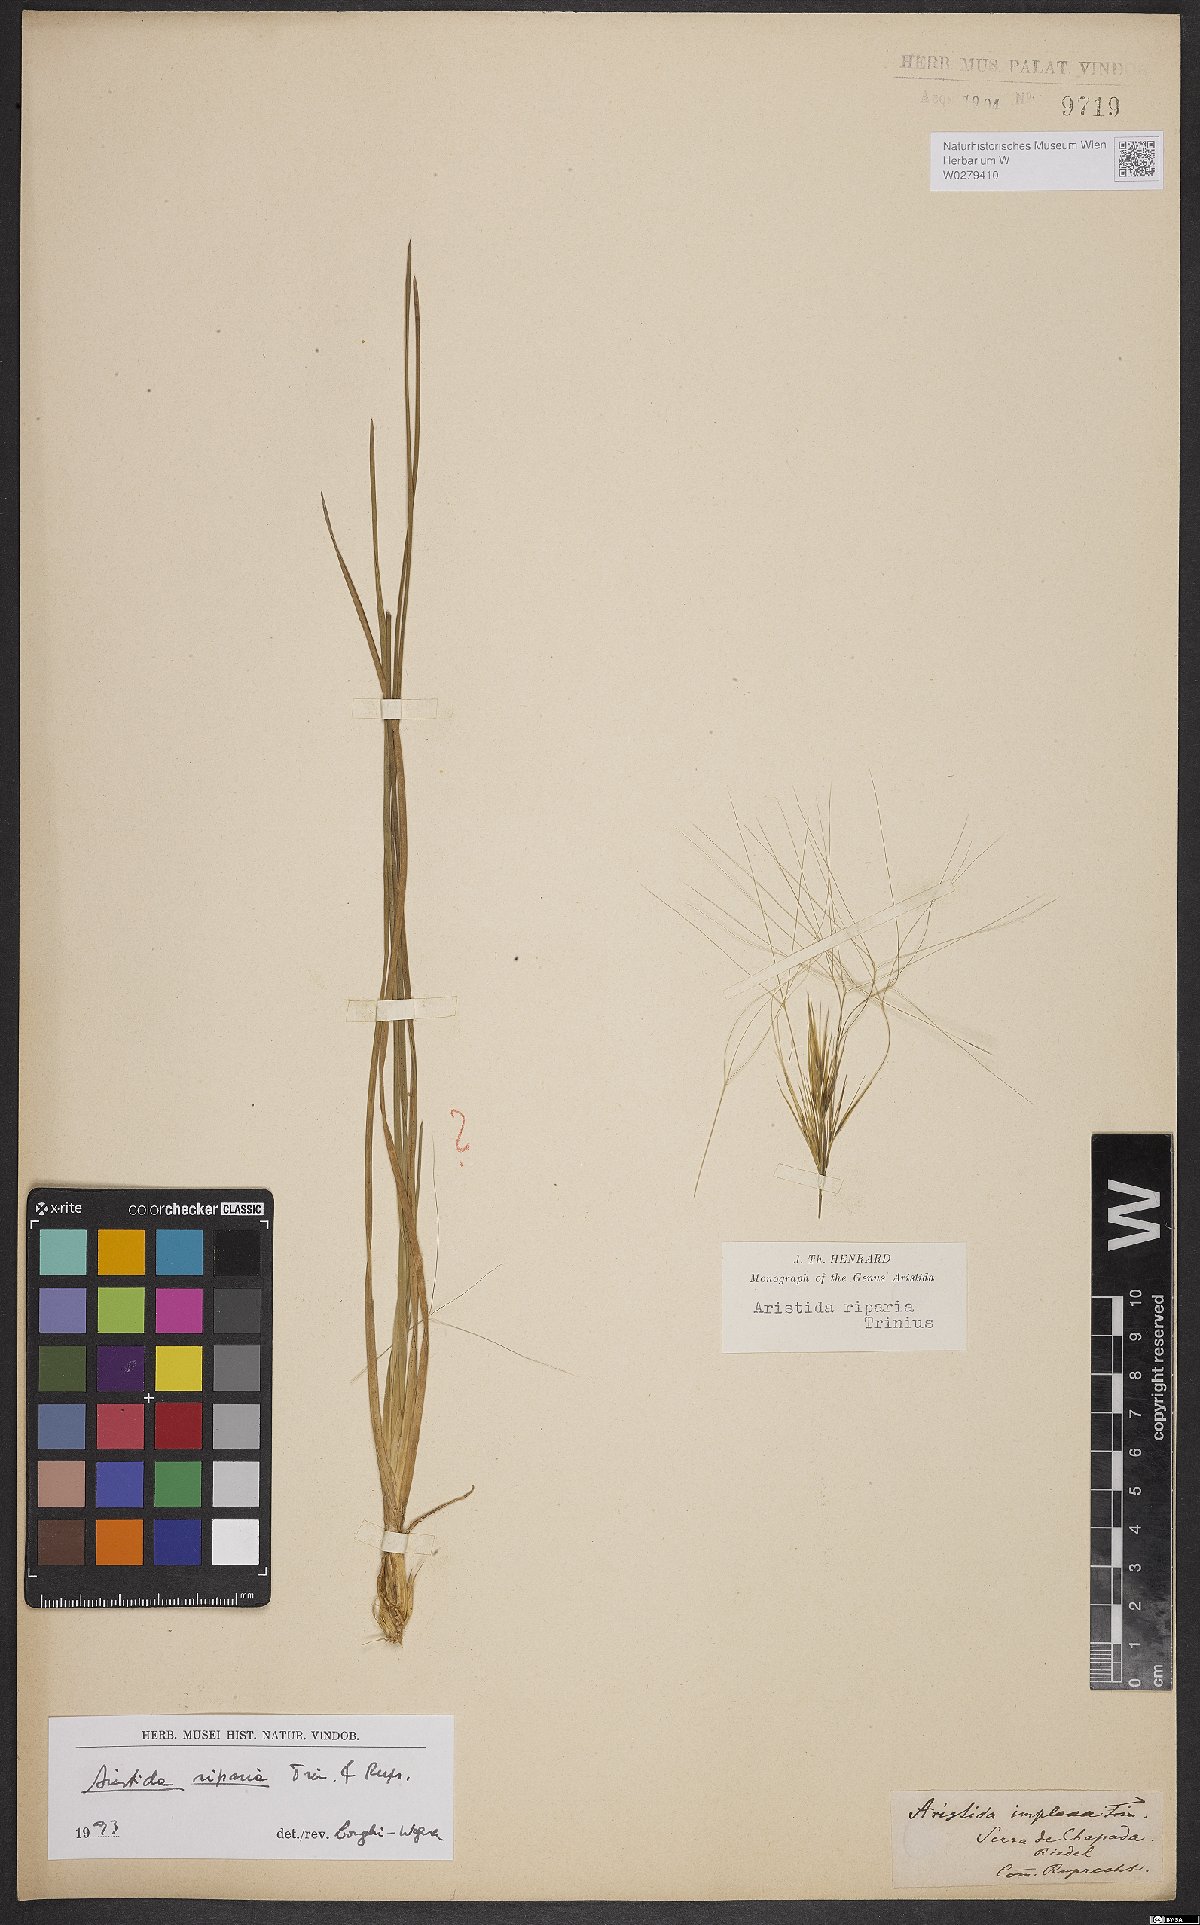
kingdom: Plantae
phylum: Tracheophyta
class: Liliopsida
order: Poales
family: Poaceae
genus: Aristida
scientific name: Aristida riparia
